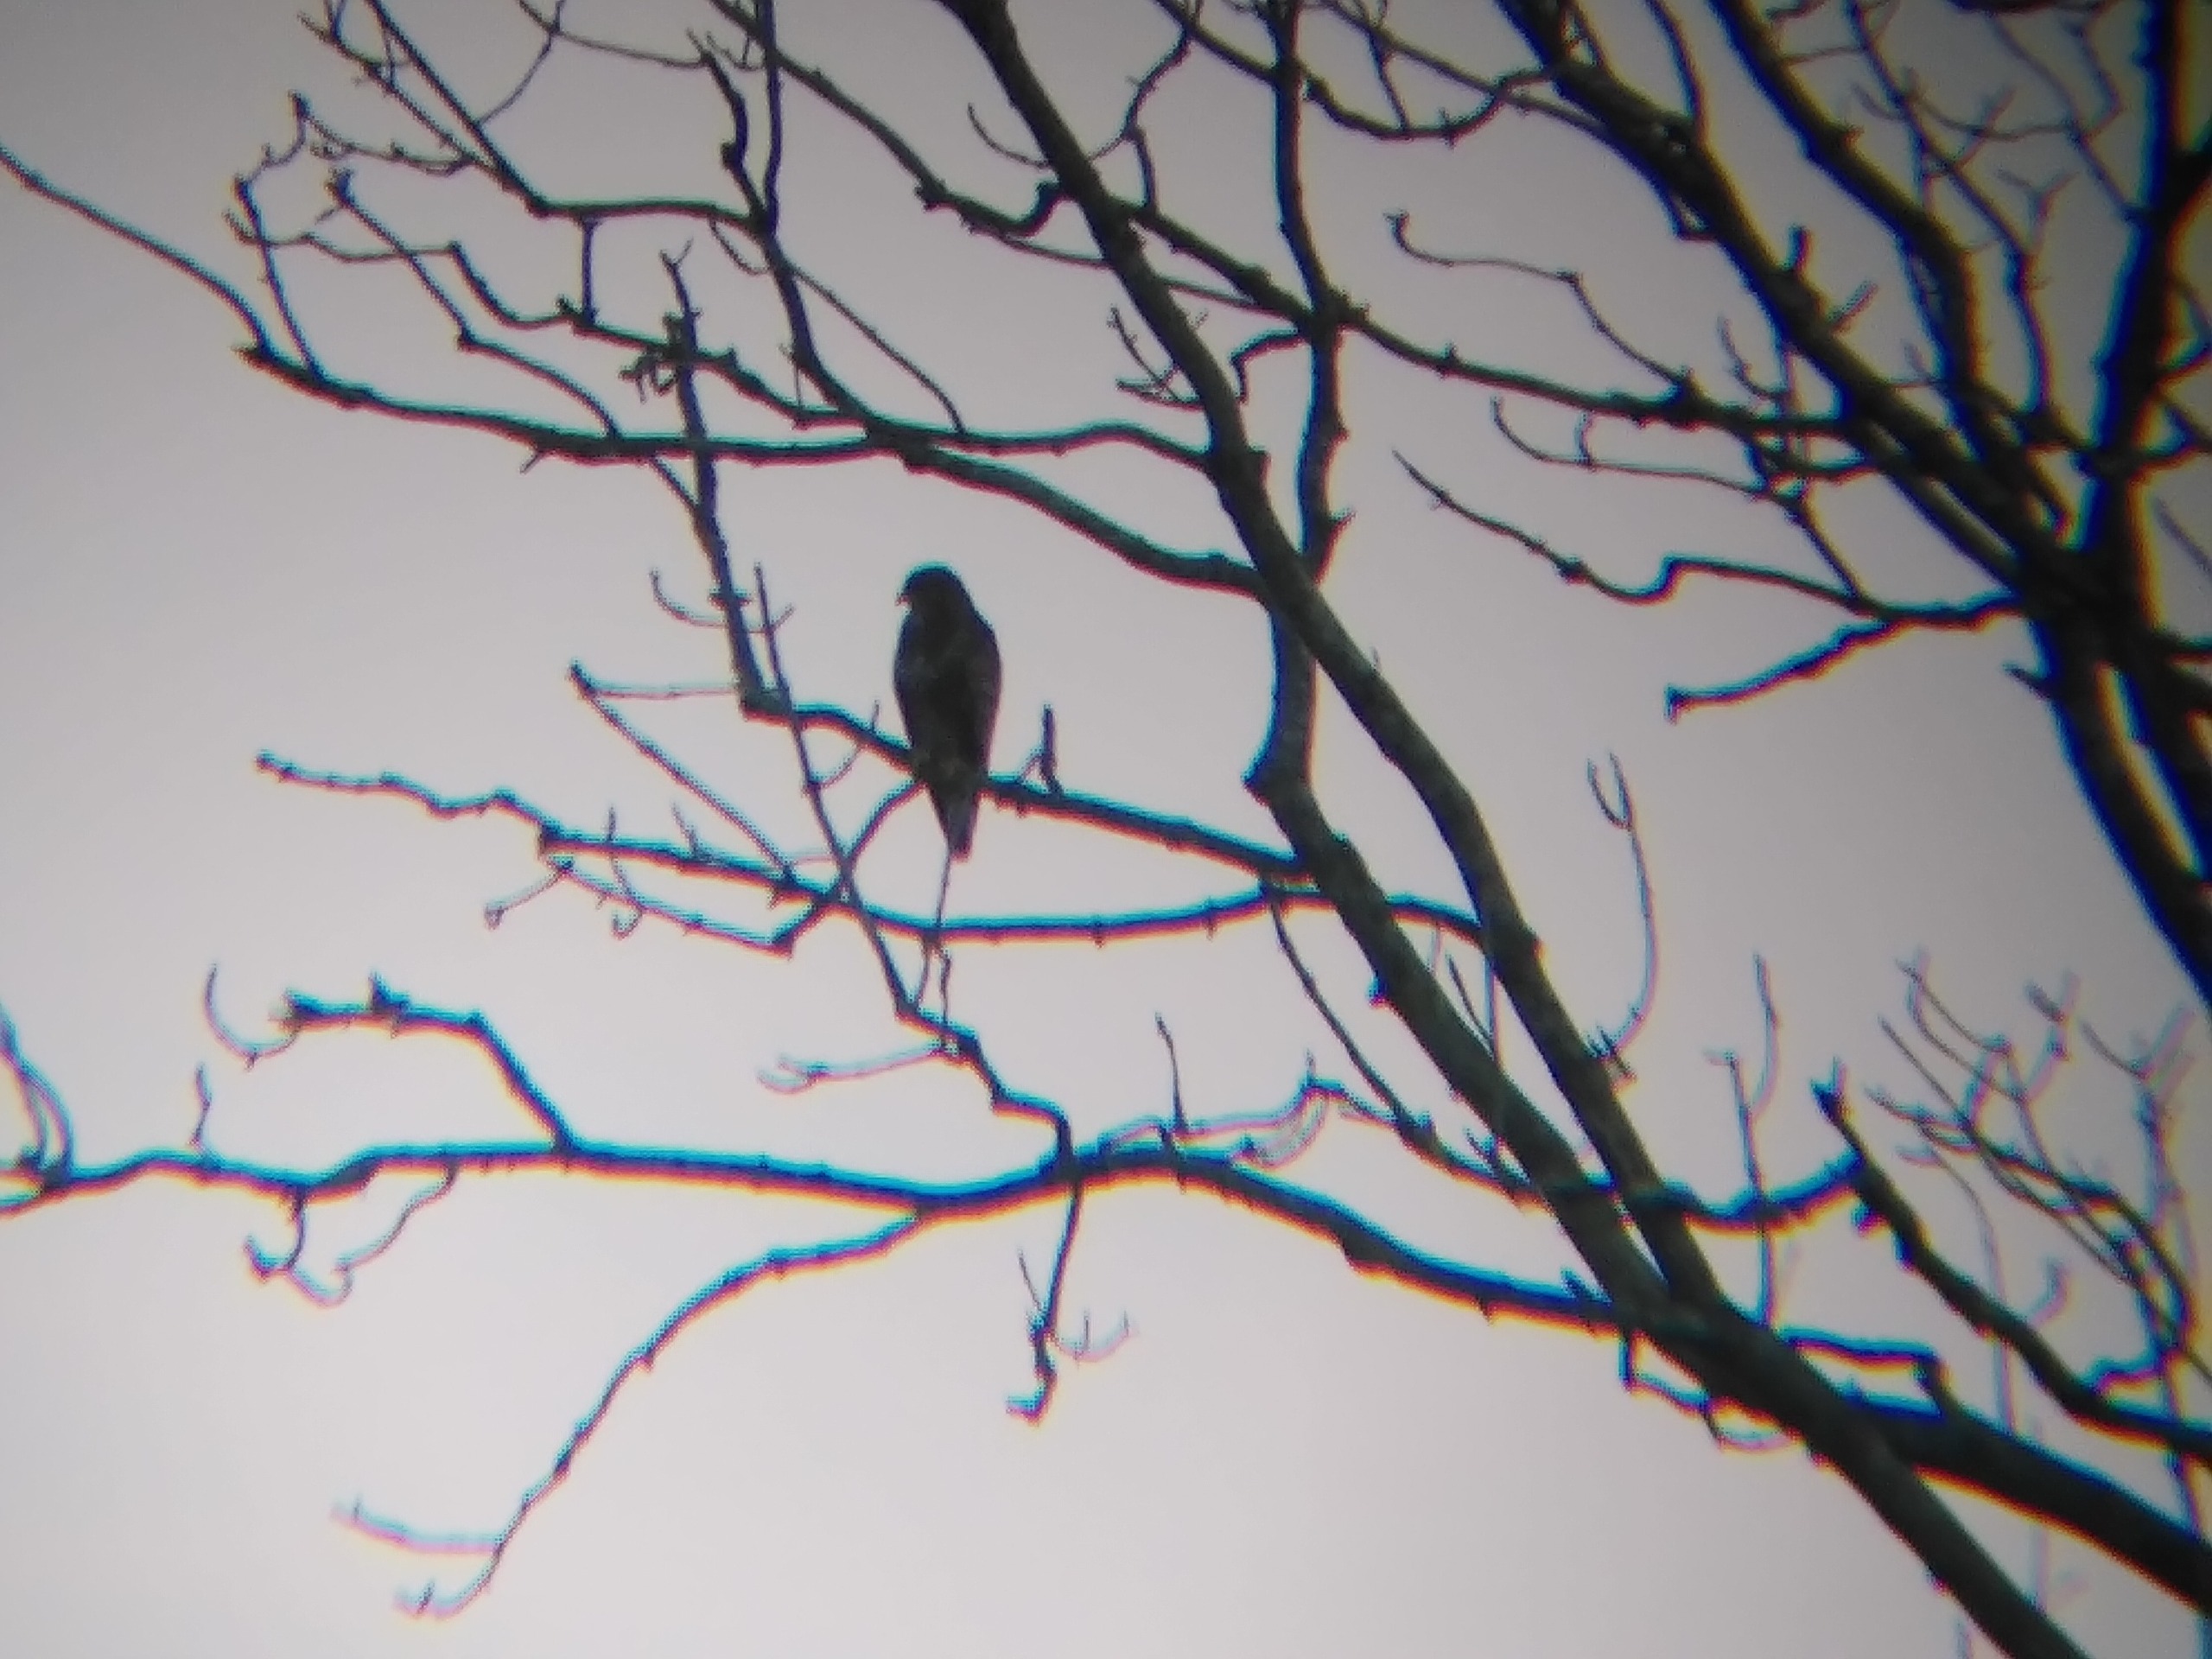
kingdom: Animalia
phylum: Chordata
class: Aves
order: Accipitriformes
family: Accipitridae
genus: Buteo
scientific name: Buteo buteo
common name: Musvåge
